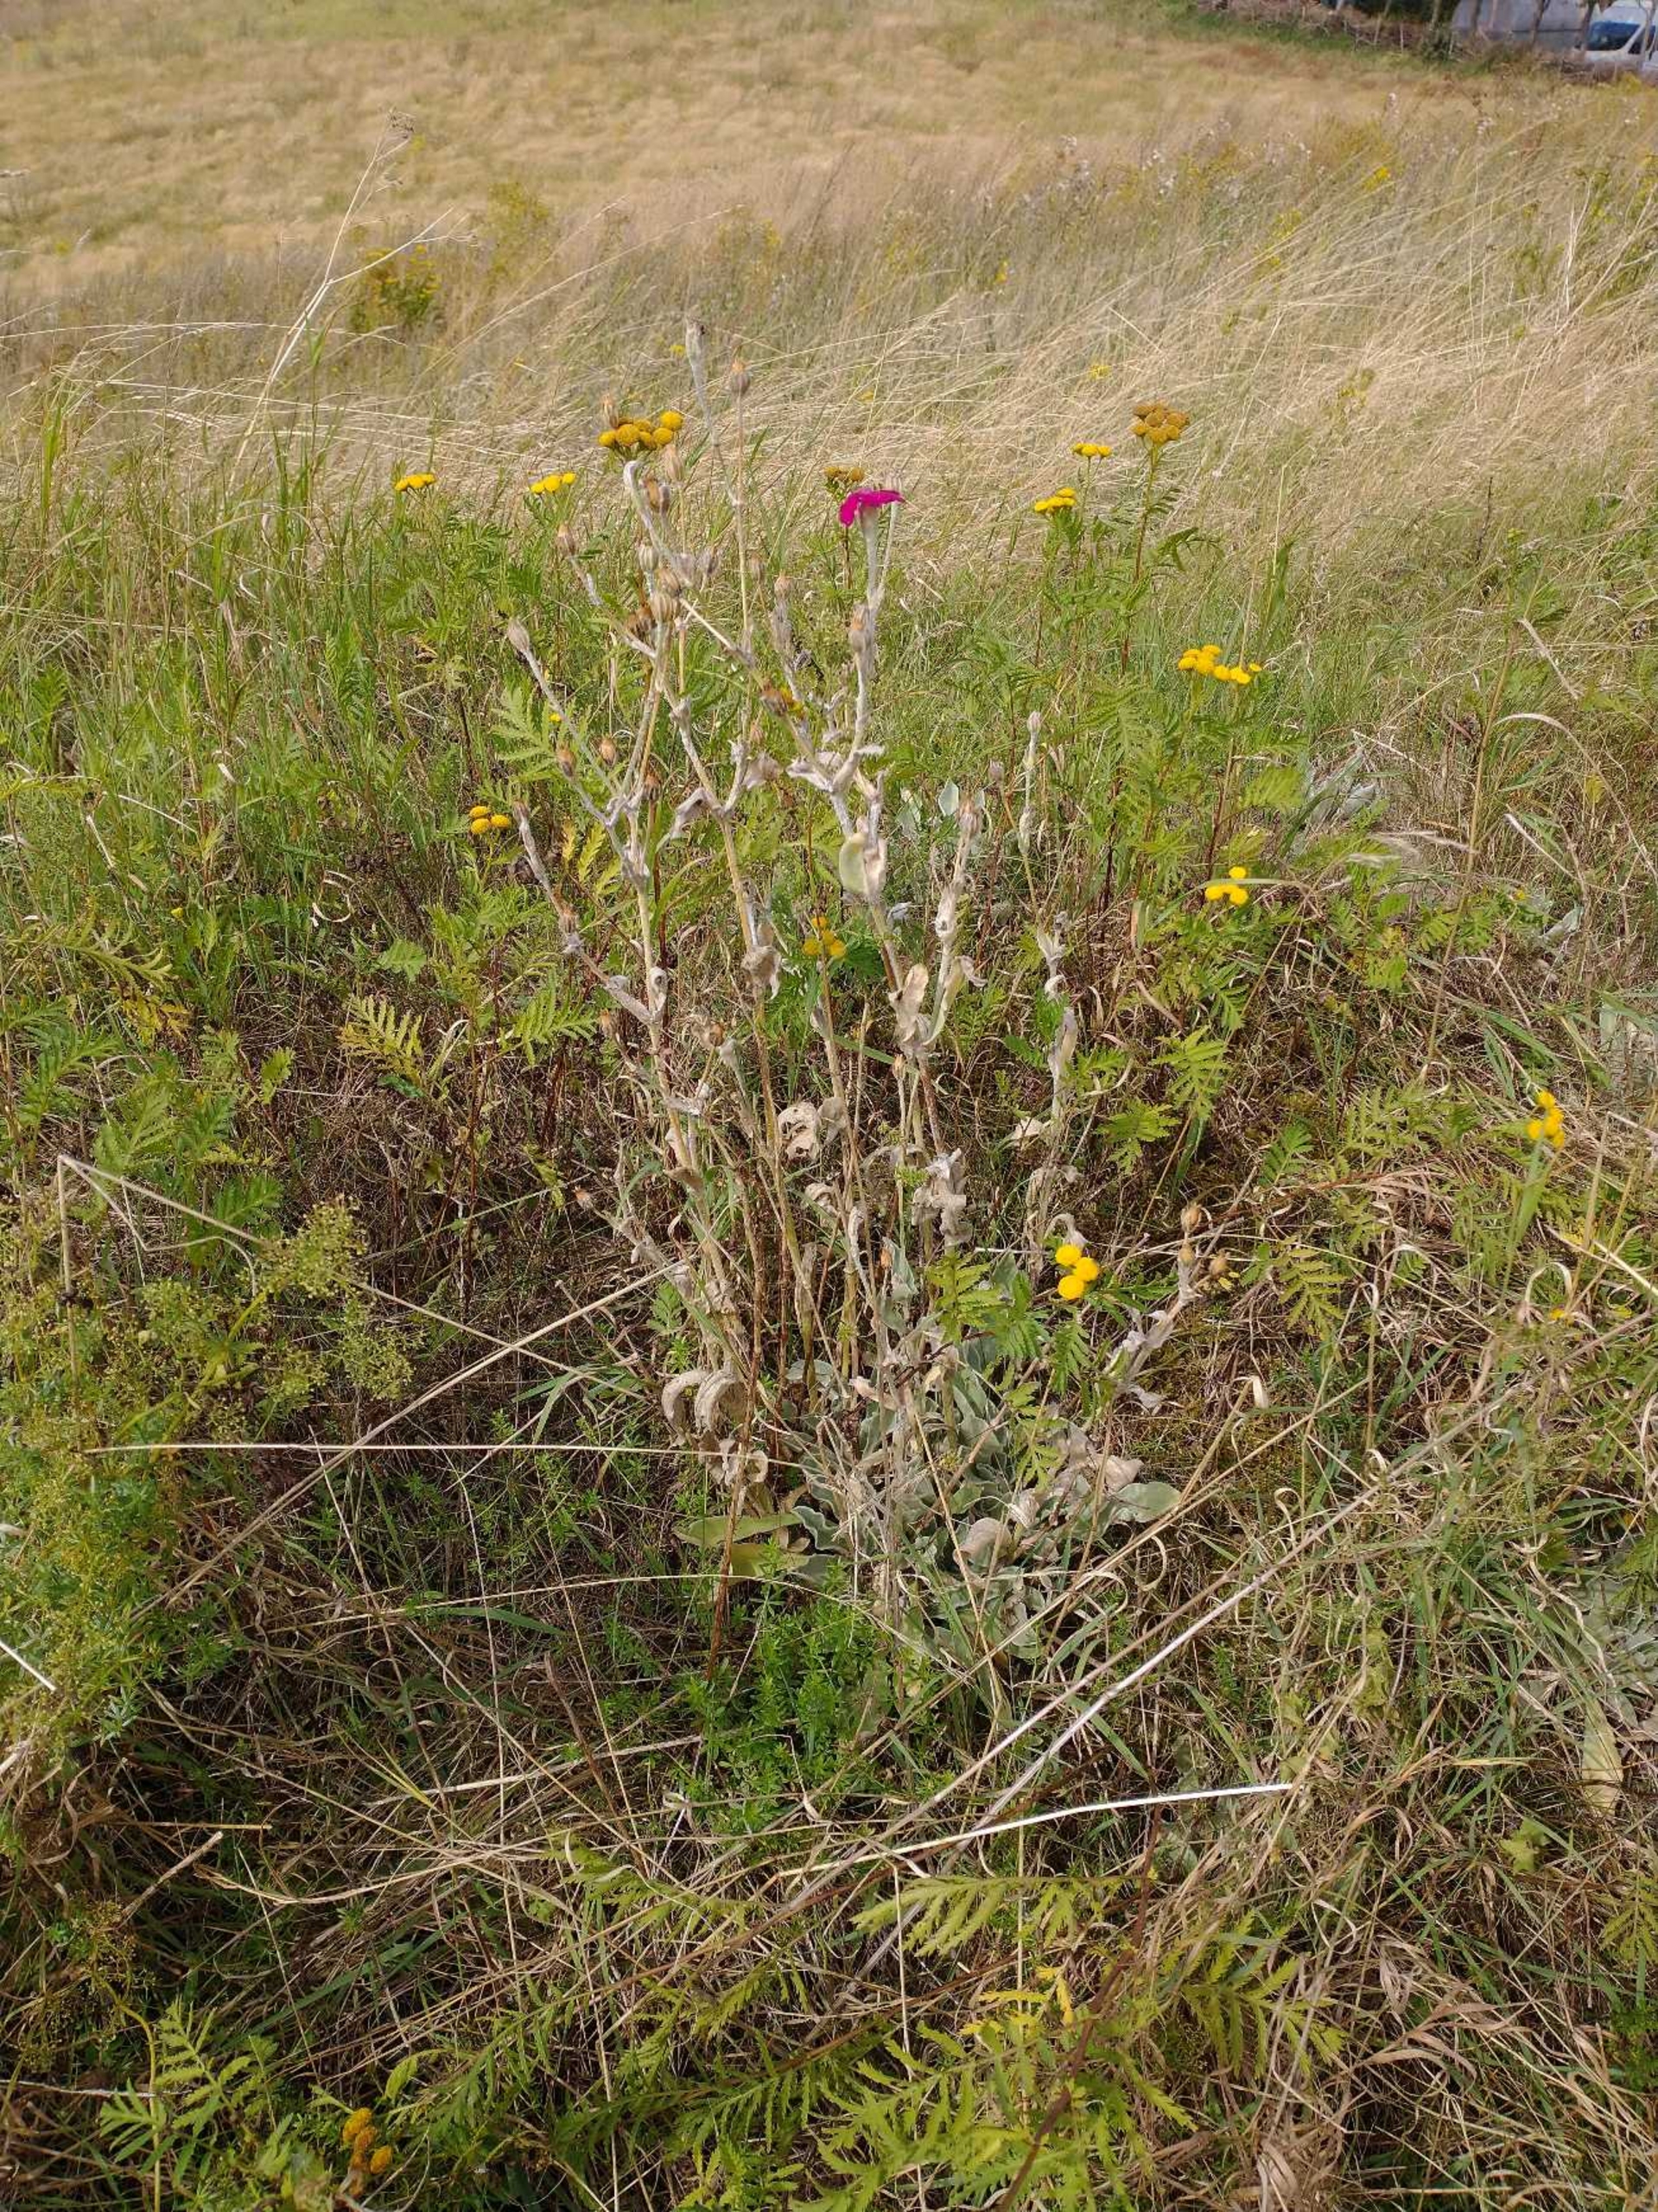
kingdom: Plantae
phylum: Tracheophyta
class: Magnoliopsida
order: Caryophyllales
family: Caryophyllaceae
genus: Silene
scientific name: Silene coronaria
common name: Fiksernellike
